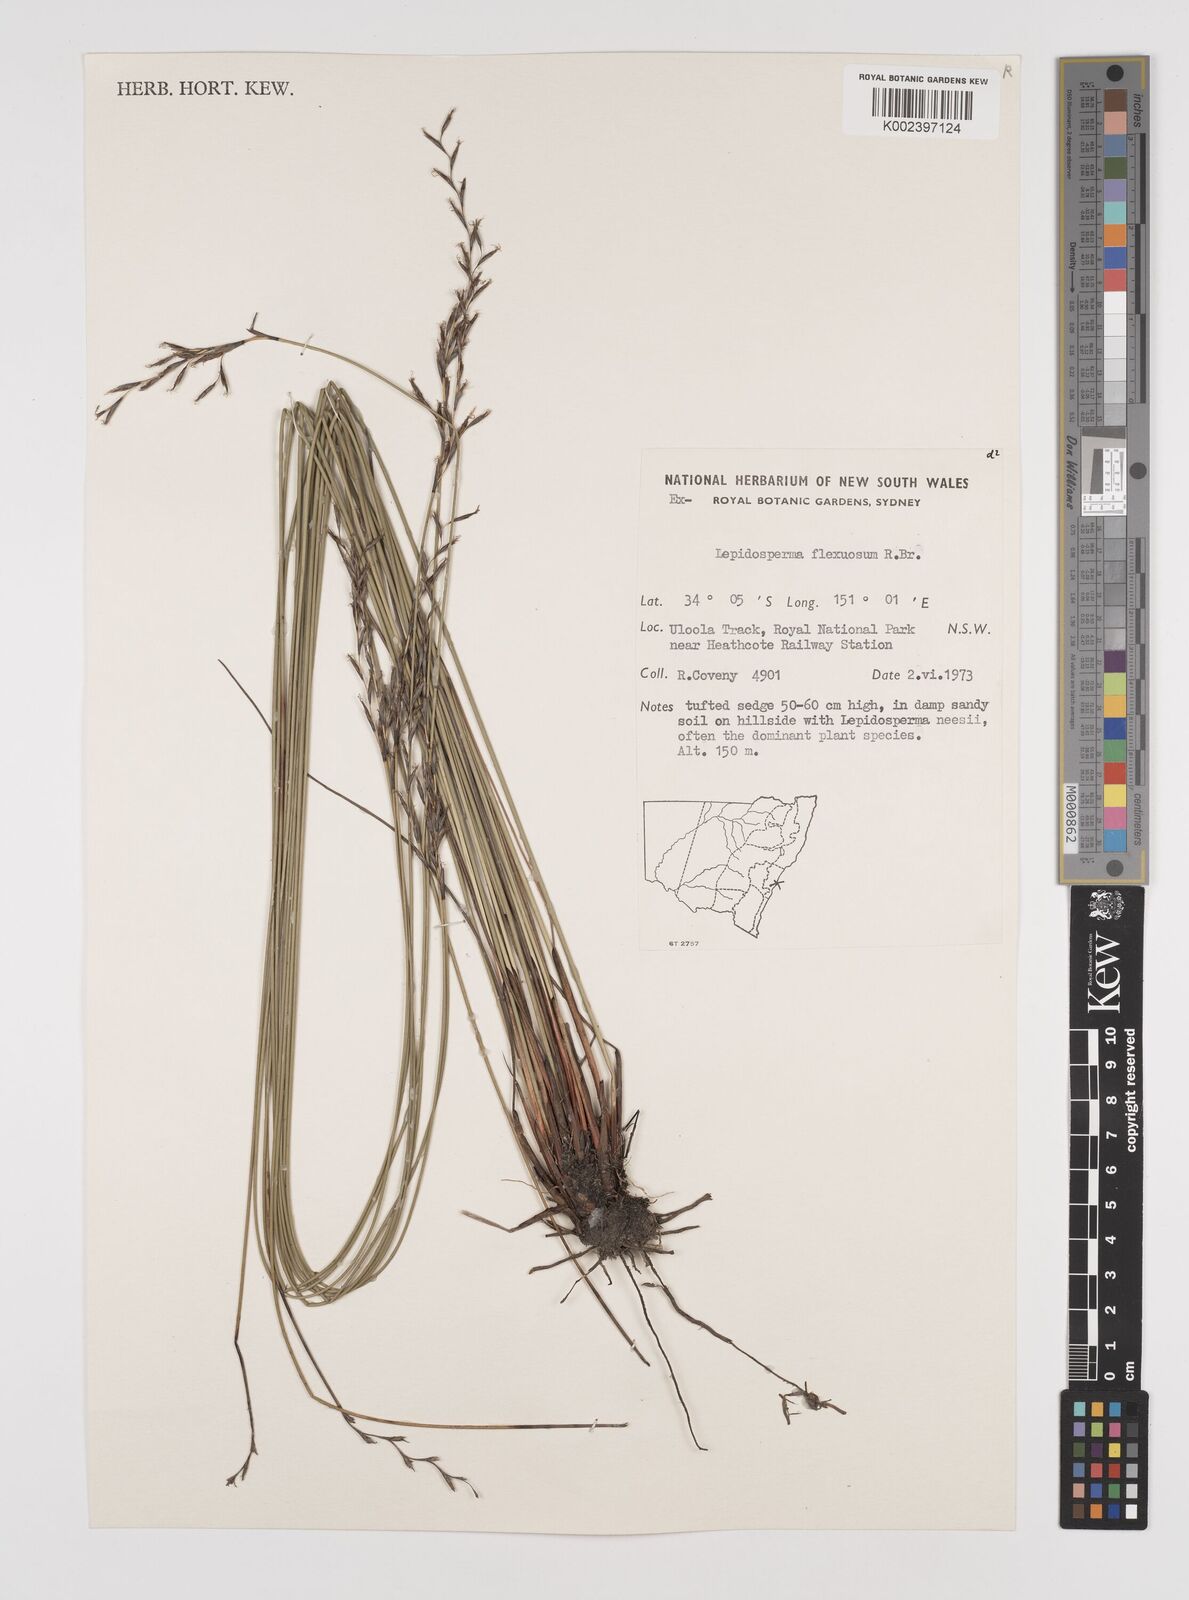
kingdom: Plantae
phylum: Tracheophyta
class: Liliopsida
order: Poales
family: Cyperaceae
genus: Lepidosperma
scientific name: Lepidosperma flexuosum
